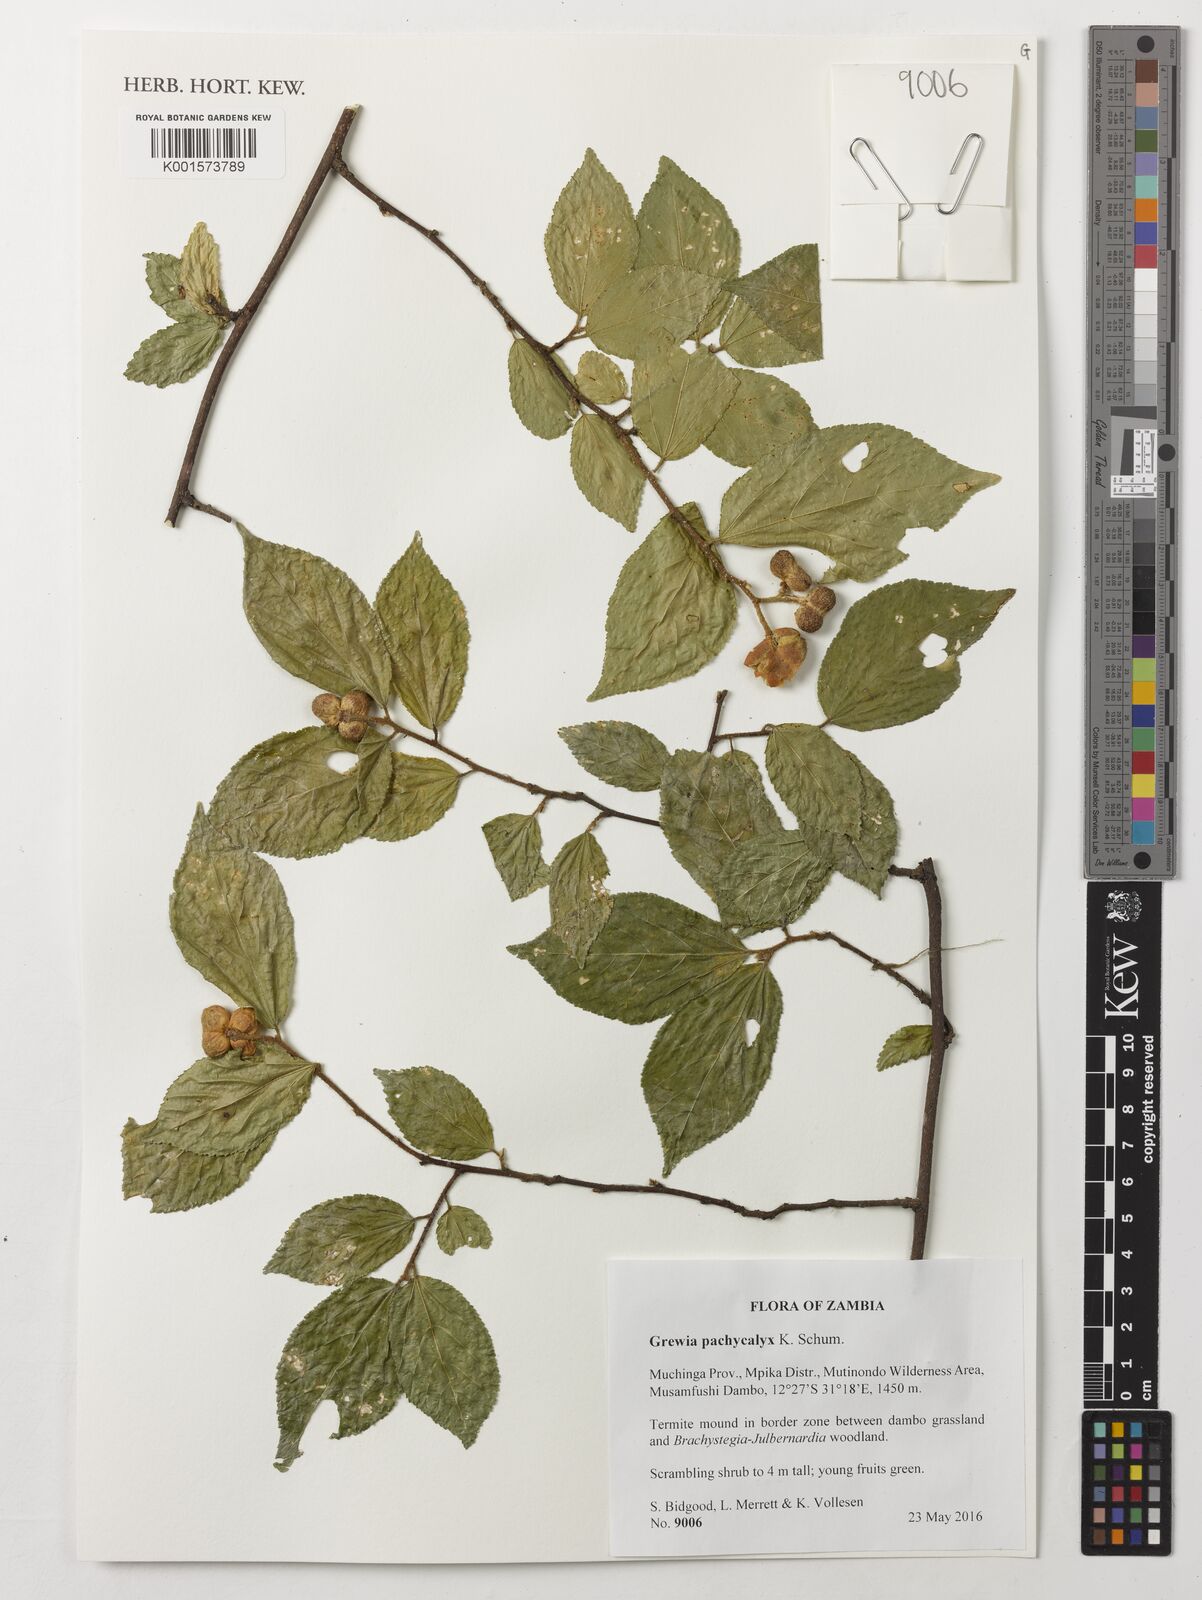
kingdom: Plantae
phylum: Tracheophyta
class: Magnoliopsida
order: Malvales
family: Malvaceae
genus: Grewia
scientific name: Grewia pachycalyx
